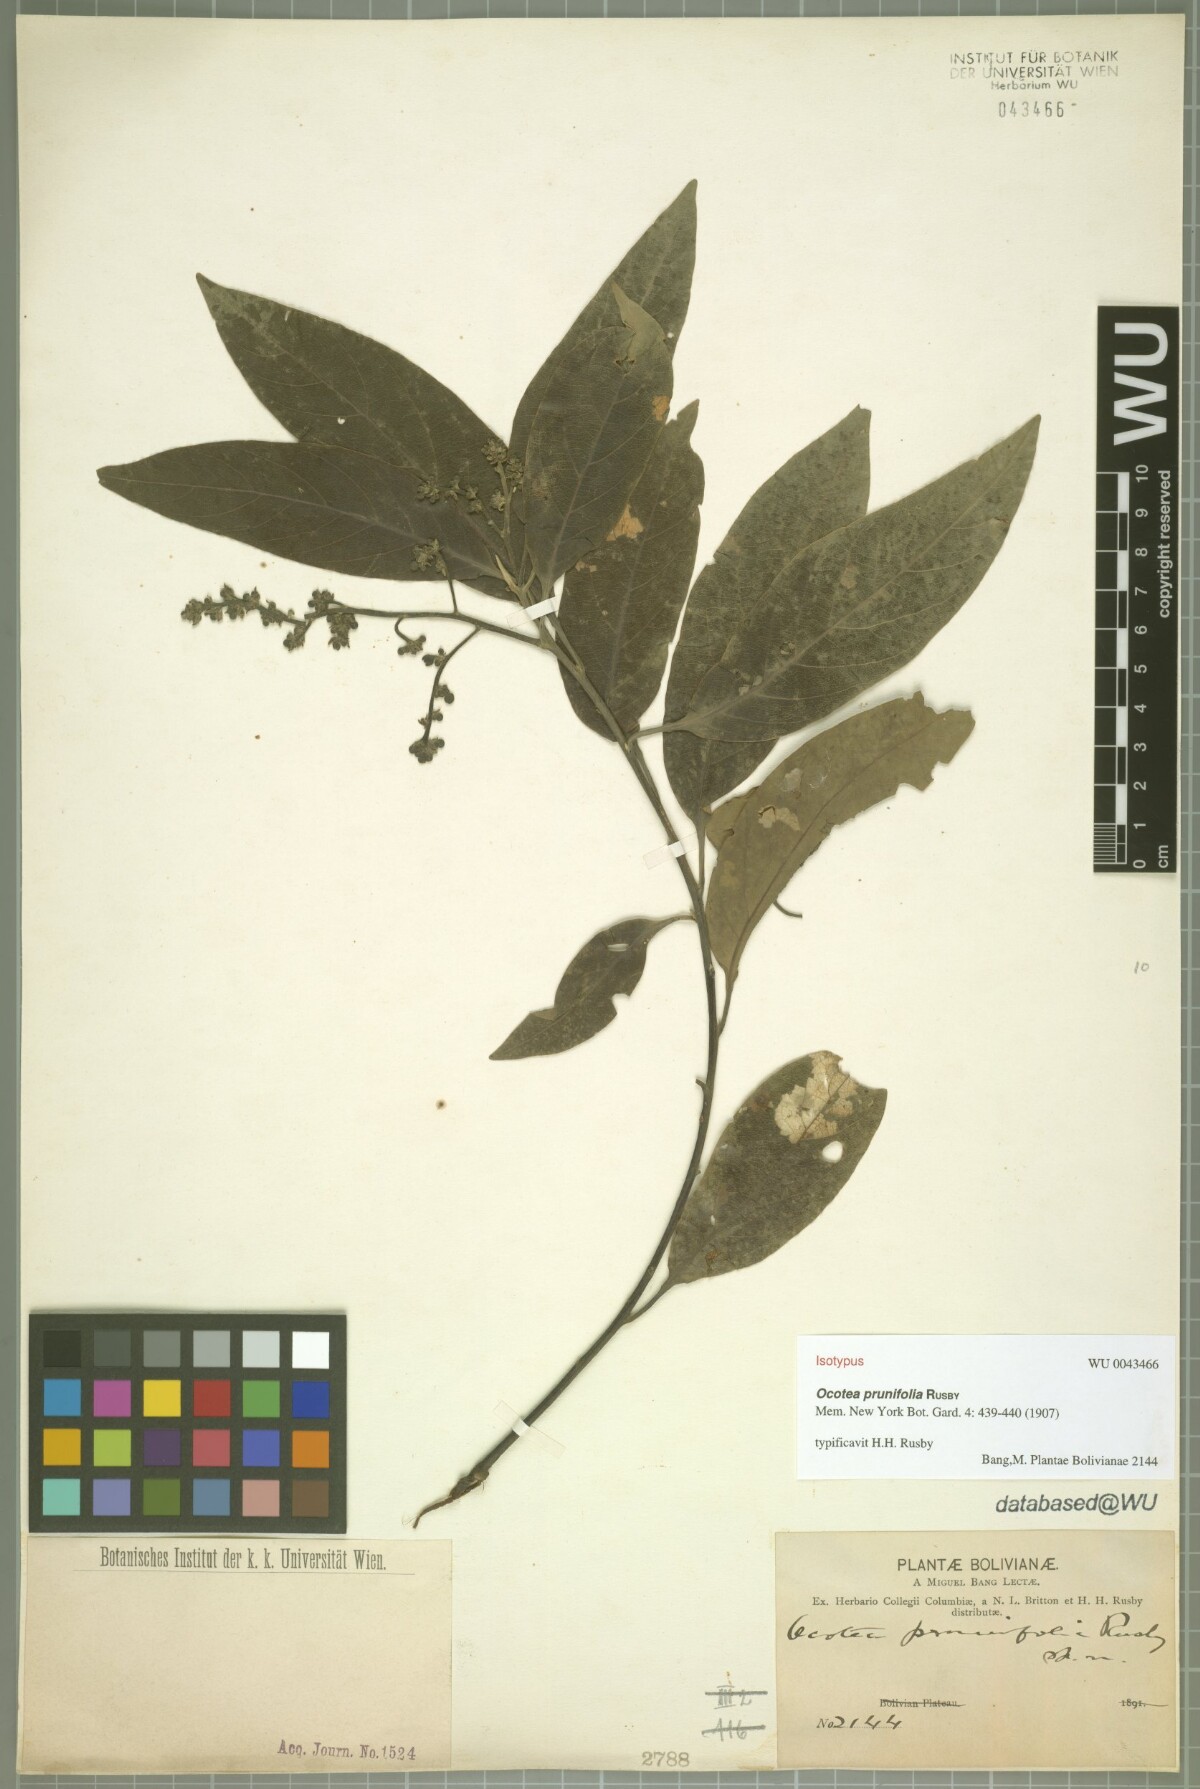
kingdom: Plantae
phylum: Tracheophyta
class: Magnoliopsida
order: Laurales
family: Lauraceae
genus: Ocotea
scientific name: Ocotea prunifolia
